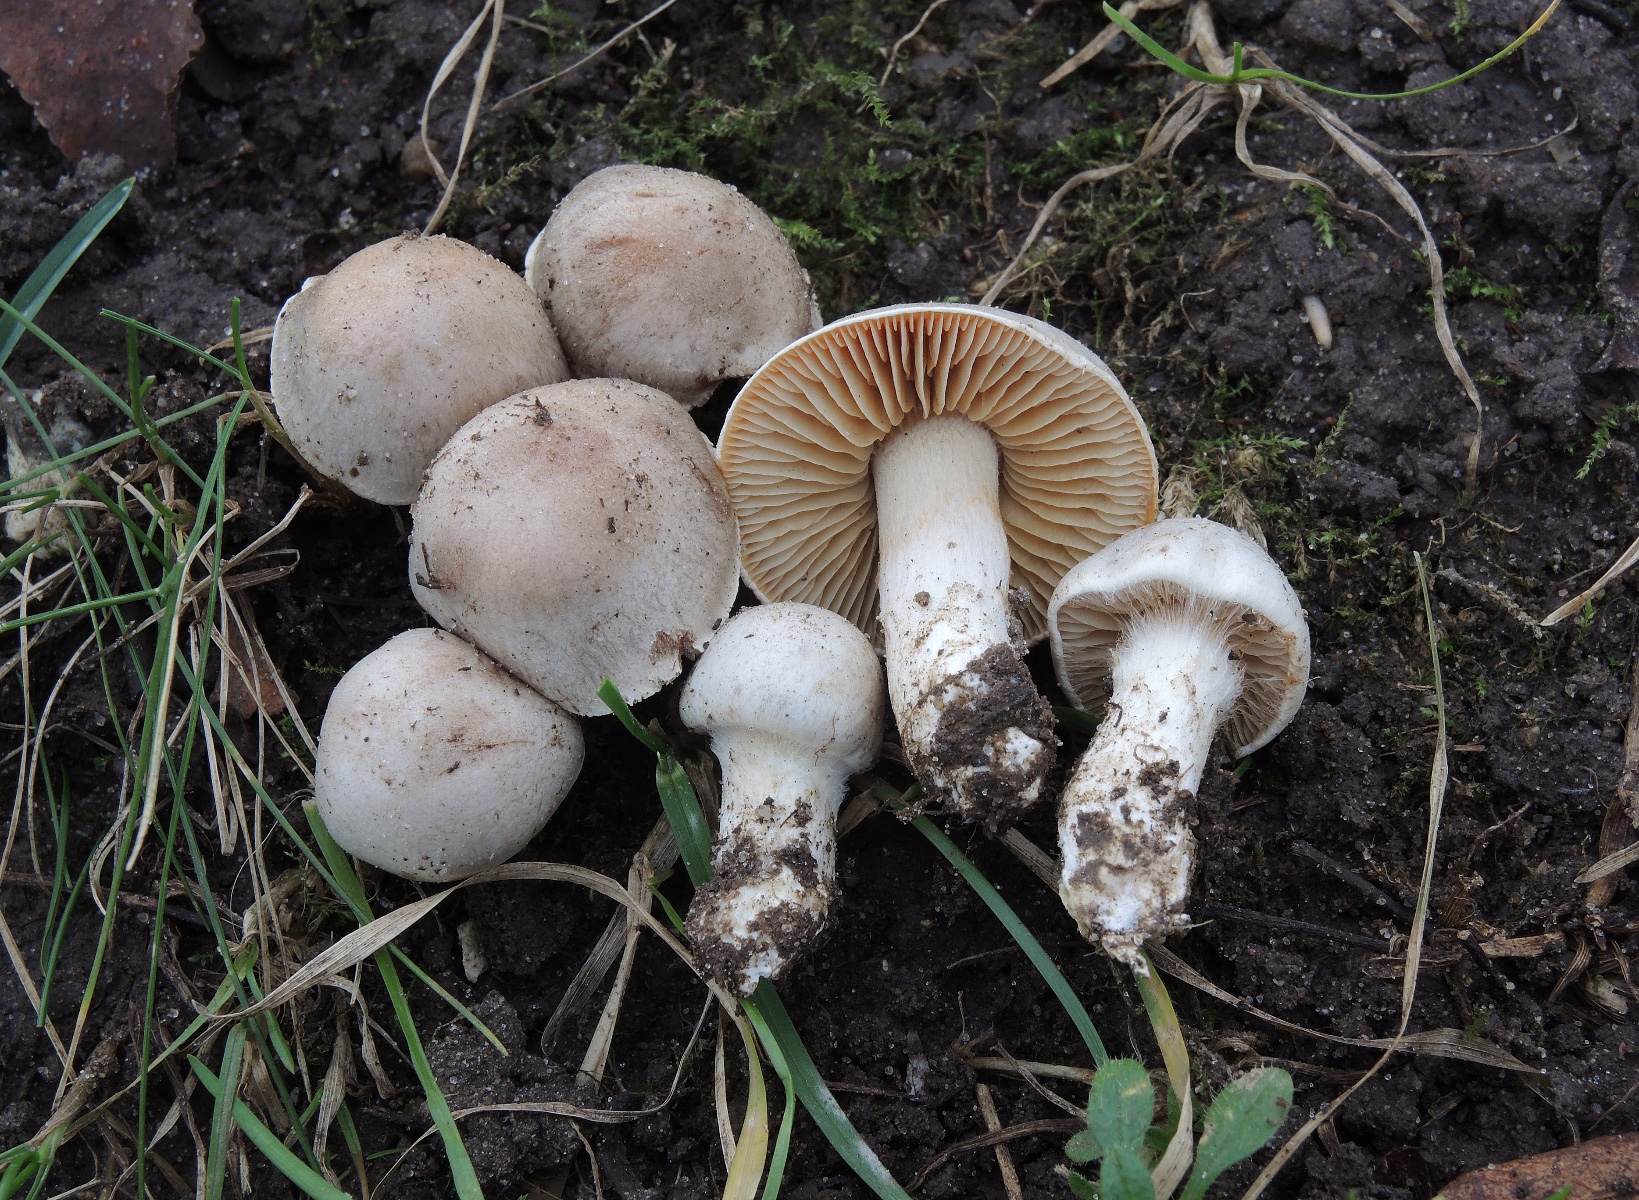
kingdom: Fungi
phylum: Basidiomycota
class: Agaricomycetes
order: Agaricales
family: Cortinariaceae
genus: Thaxterogaster
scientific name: Thaxterogaster leucoluteolus
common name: isabella slørhat
